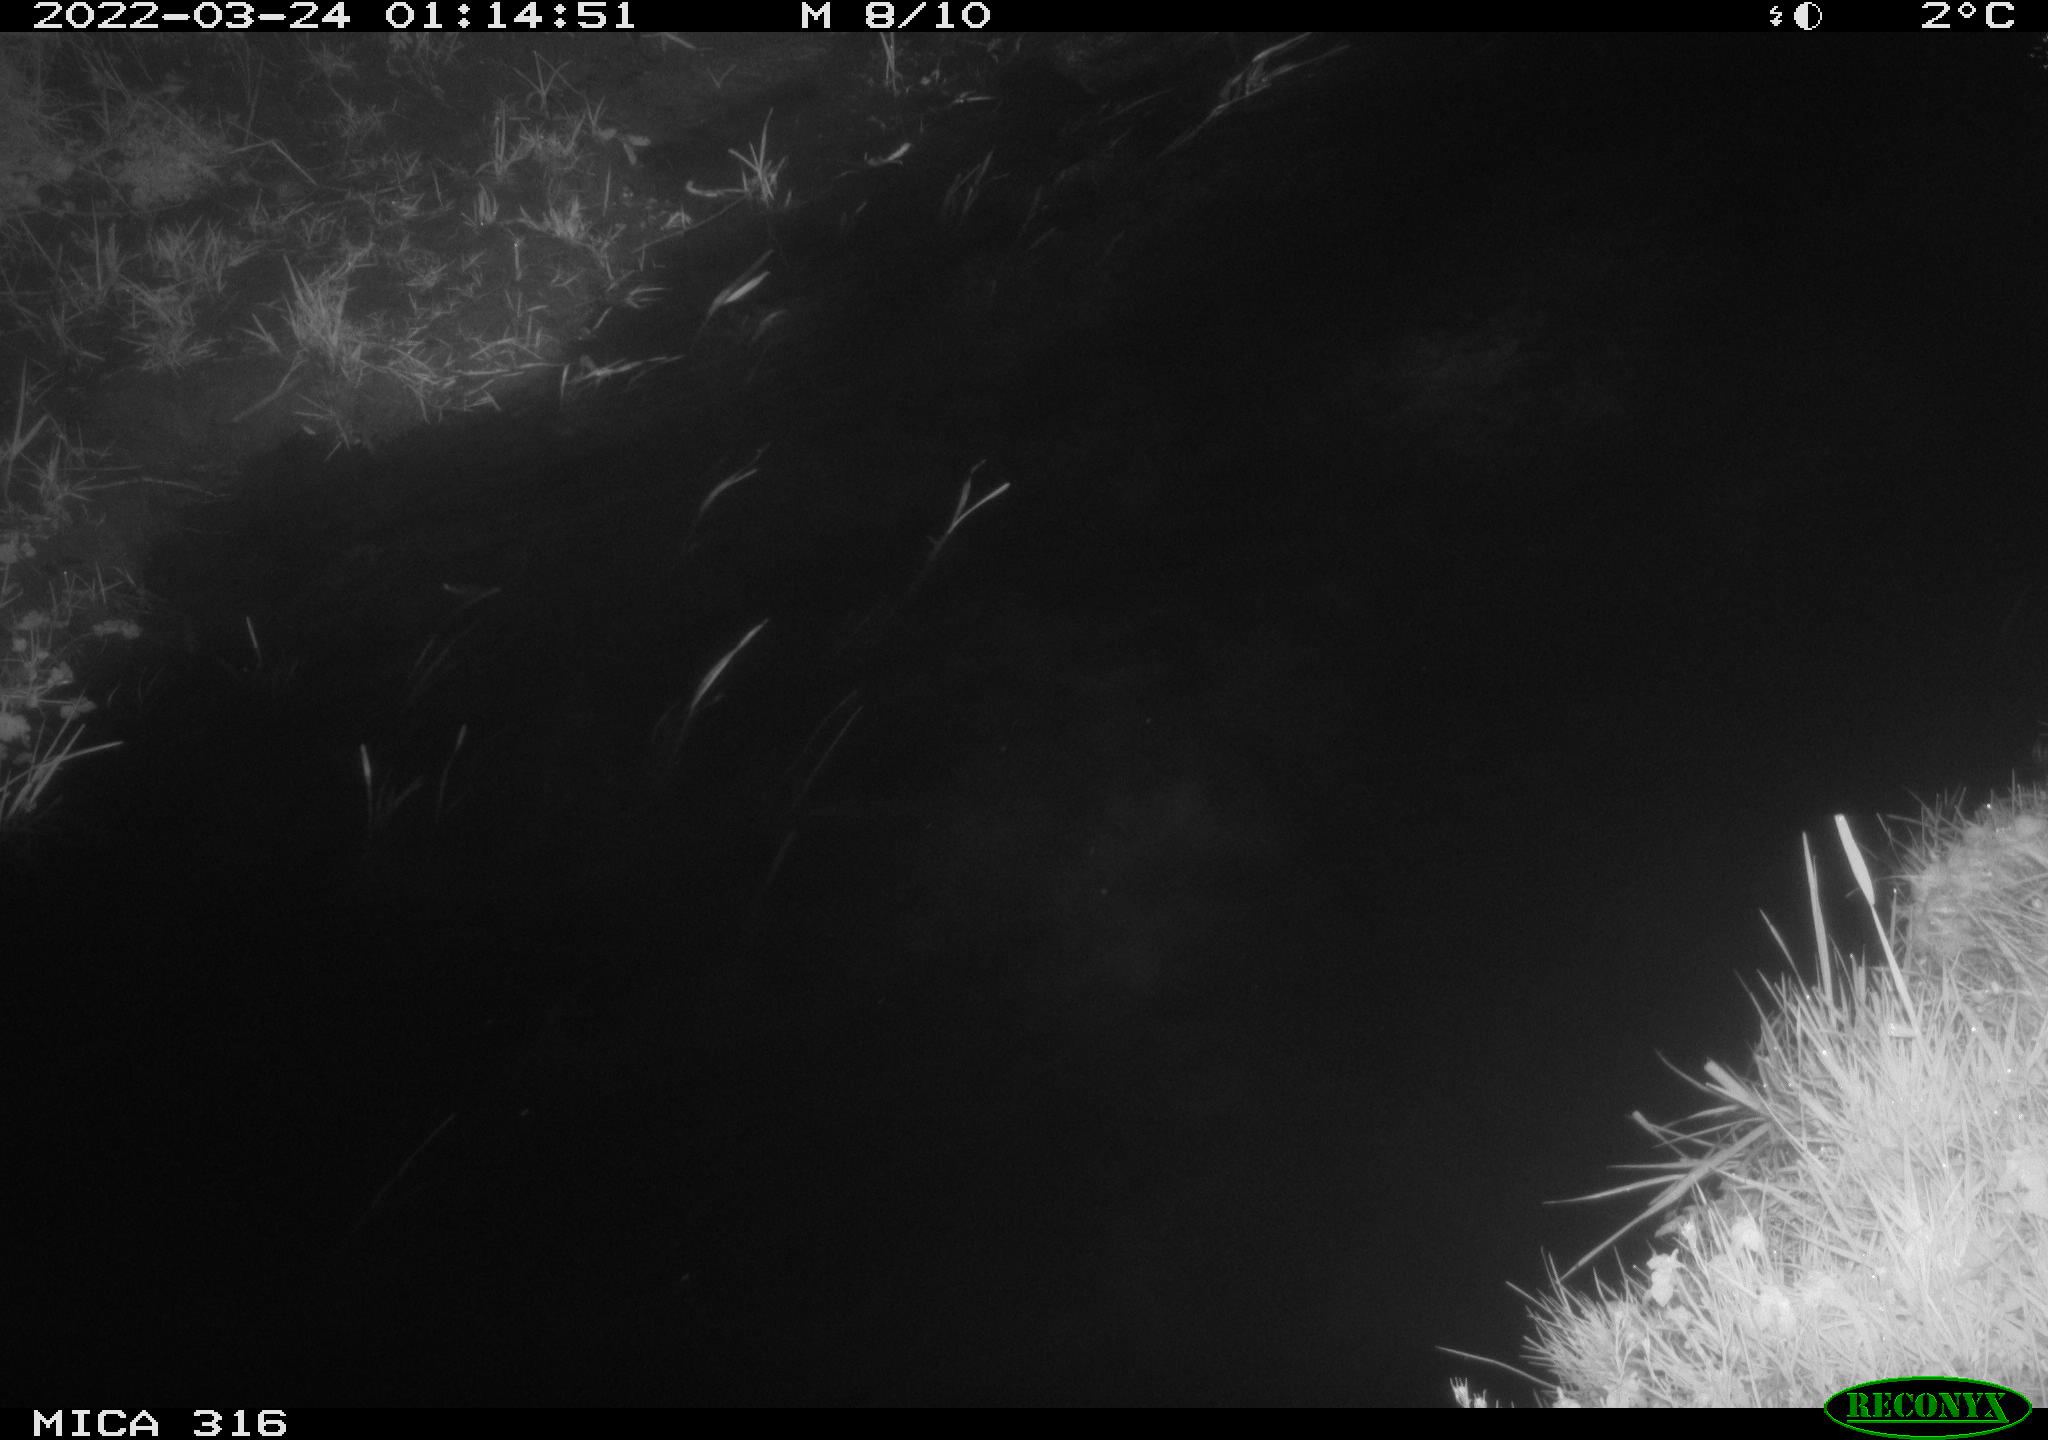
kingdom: Animalia
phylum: Chordata
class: Aves
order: Anseriformes
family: Anatidae
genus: Anas
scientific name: Anas platyrhynchos
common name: Mallard
